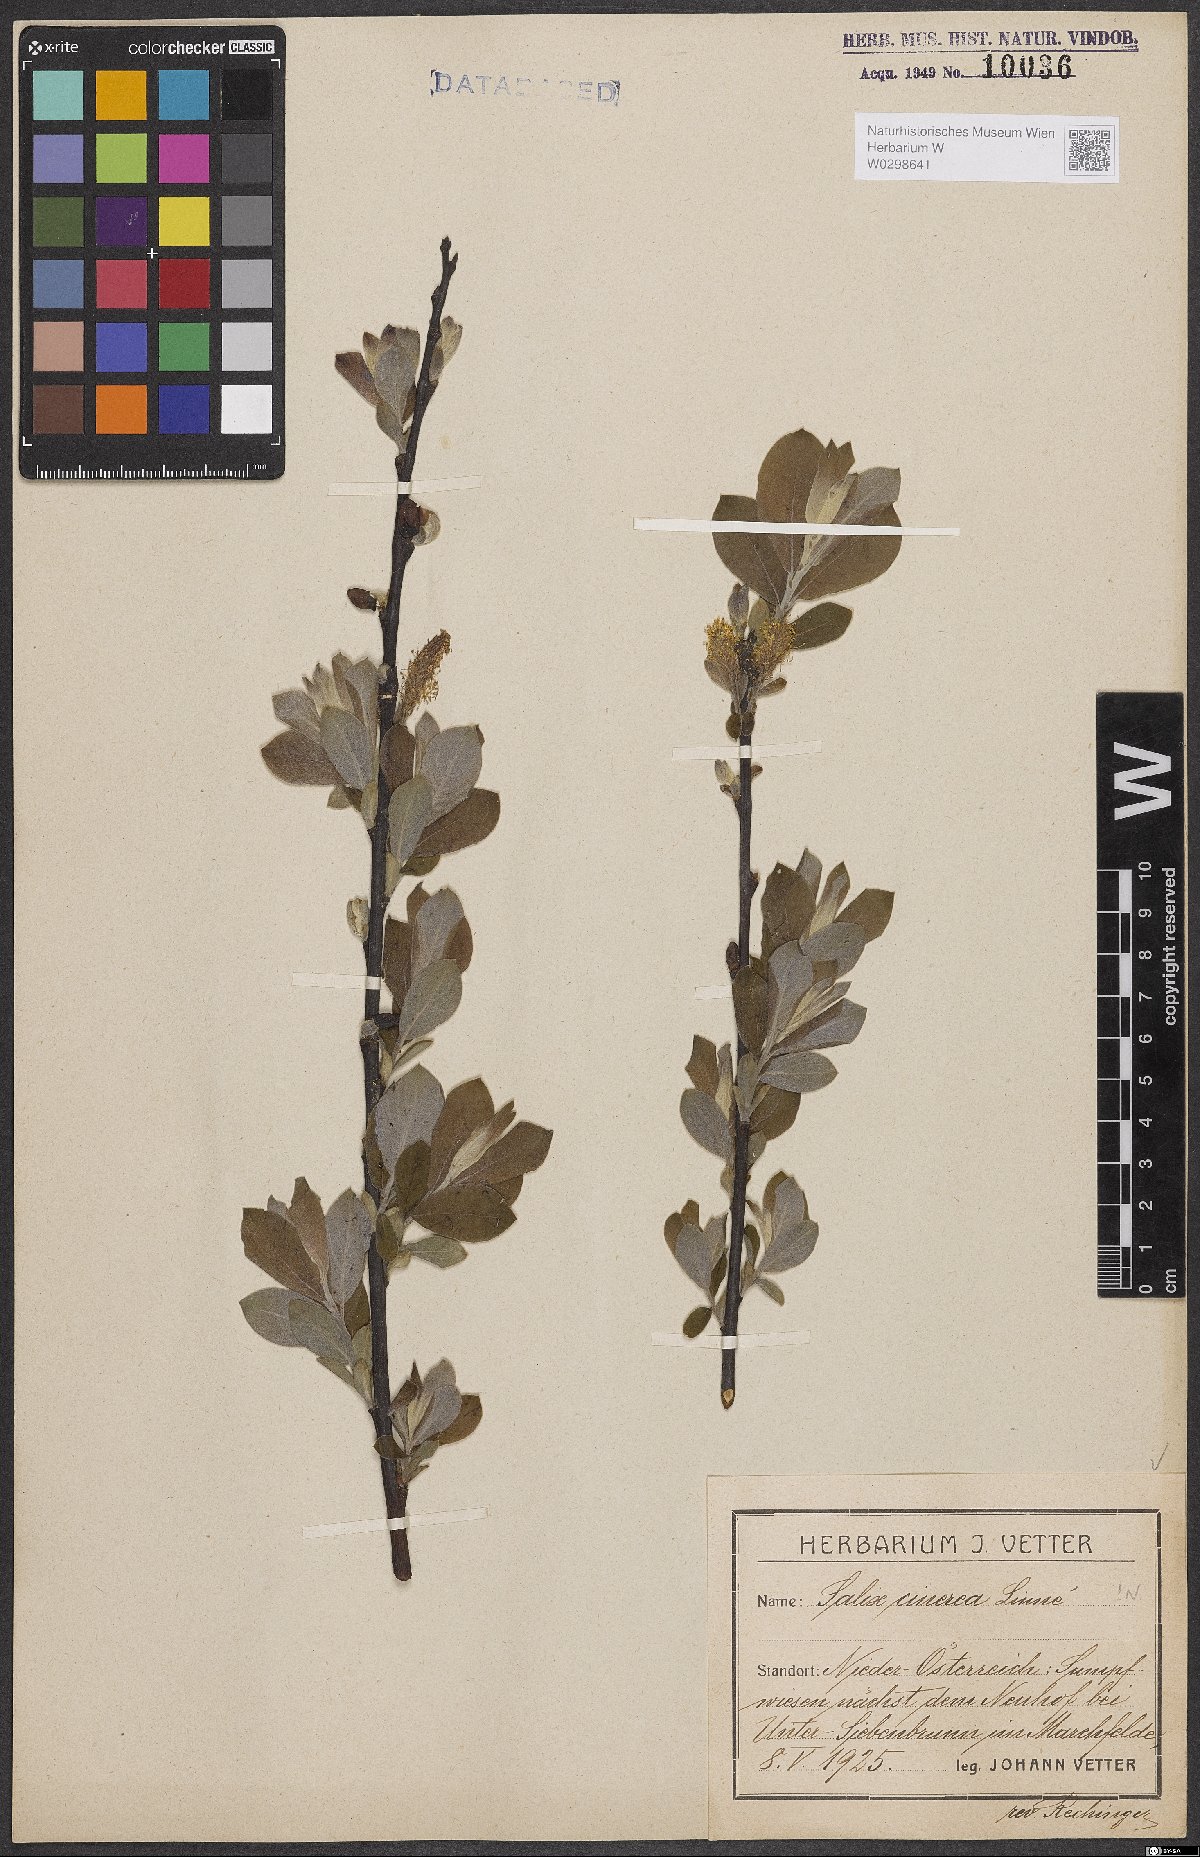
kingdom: Plantae
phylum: Tracheophyta
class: Magnoliopsida
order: Malpighiales
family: Salicaceae
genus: Salix
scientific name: Salix cinerea
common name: Common sallow
